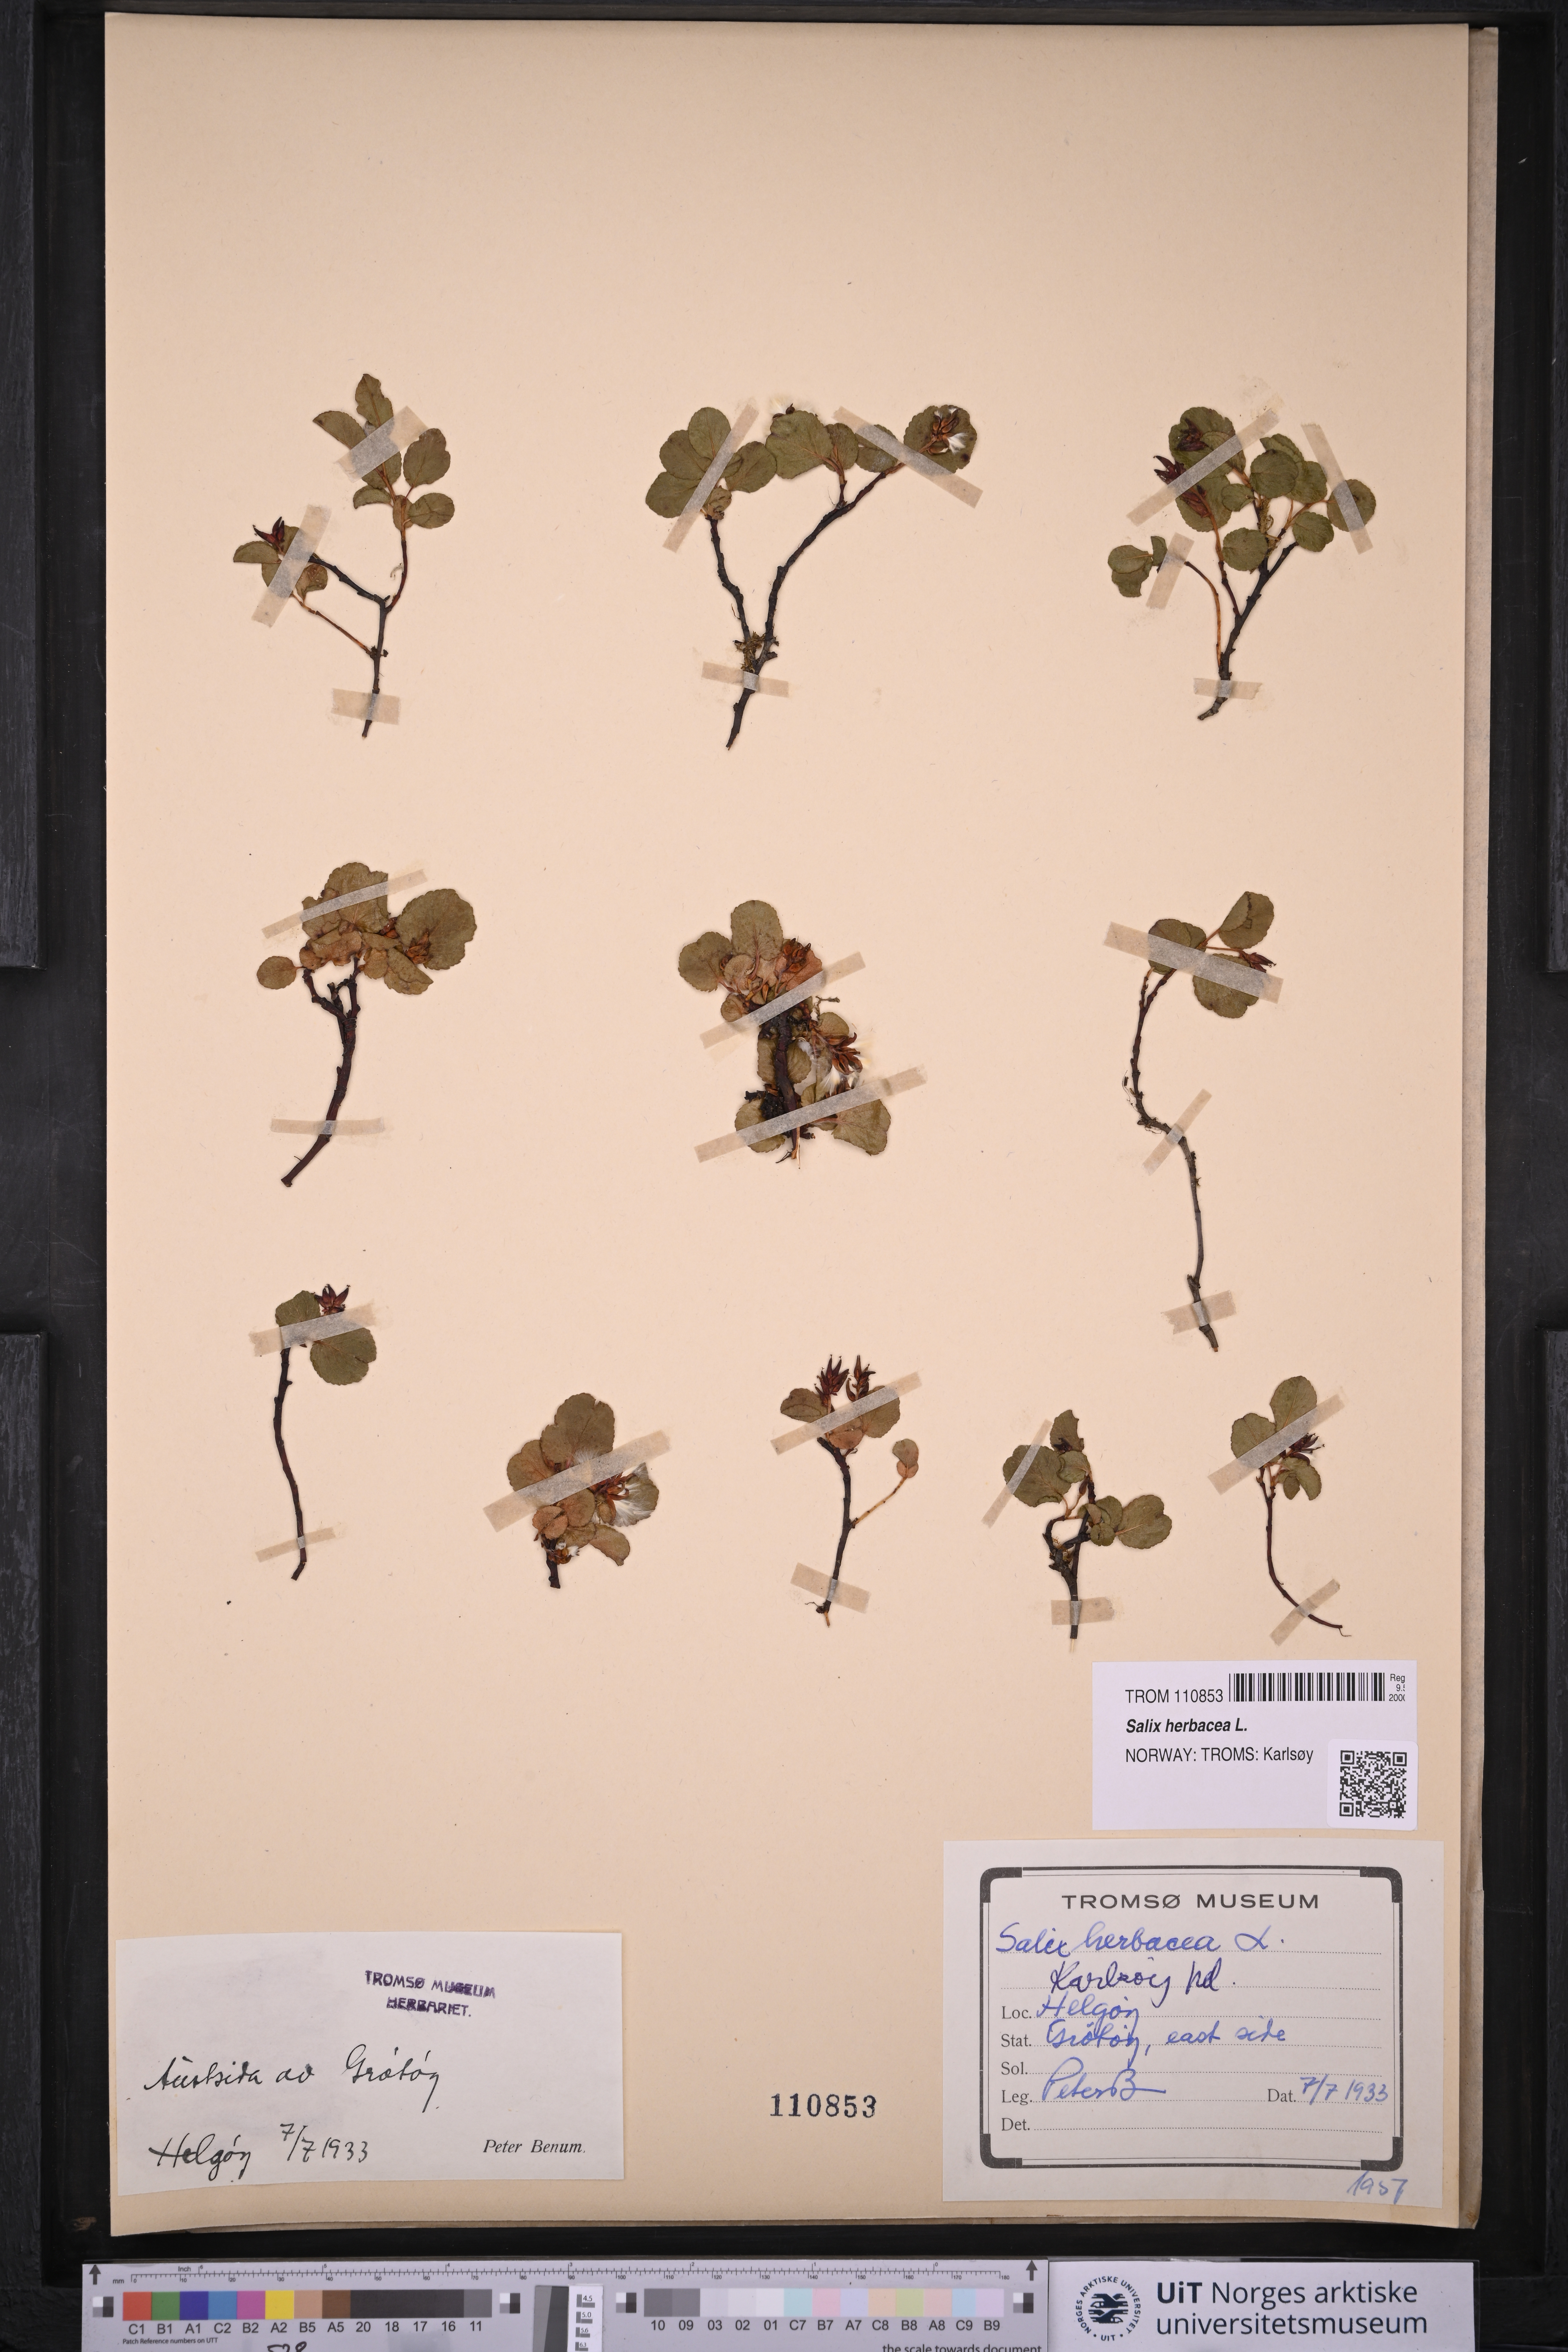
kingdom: Plantae
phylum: Tracheophyta
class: Magnoliopsida
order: Malpighiales
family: Salicaceae
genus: Salix
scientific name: Salix herbacea
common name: Dwarf willow
